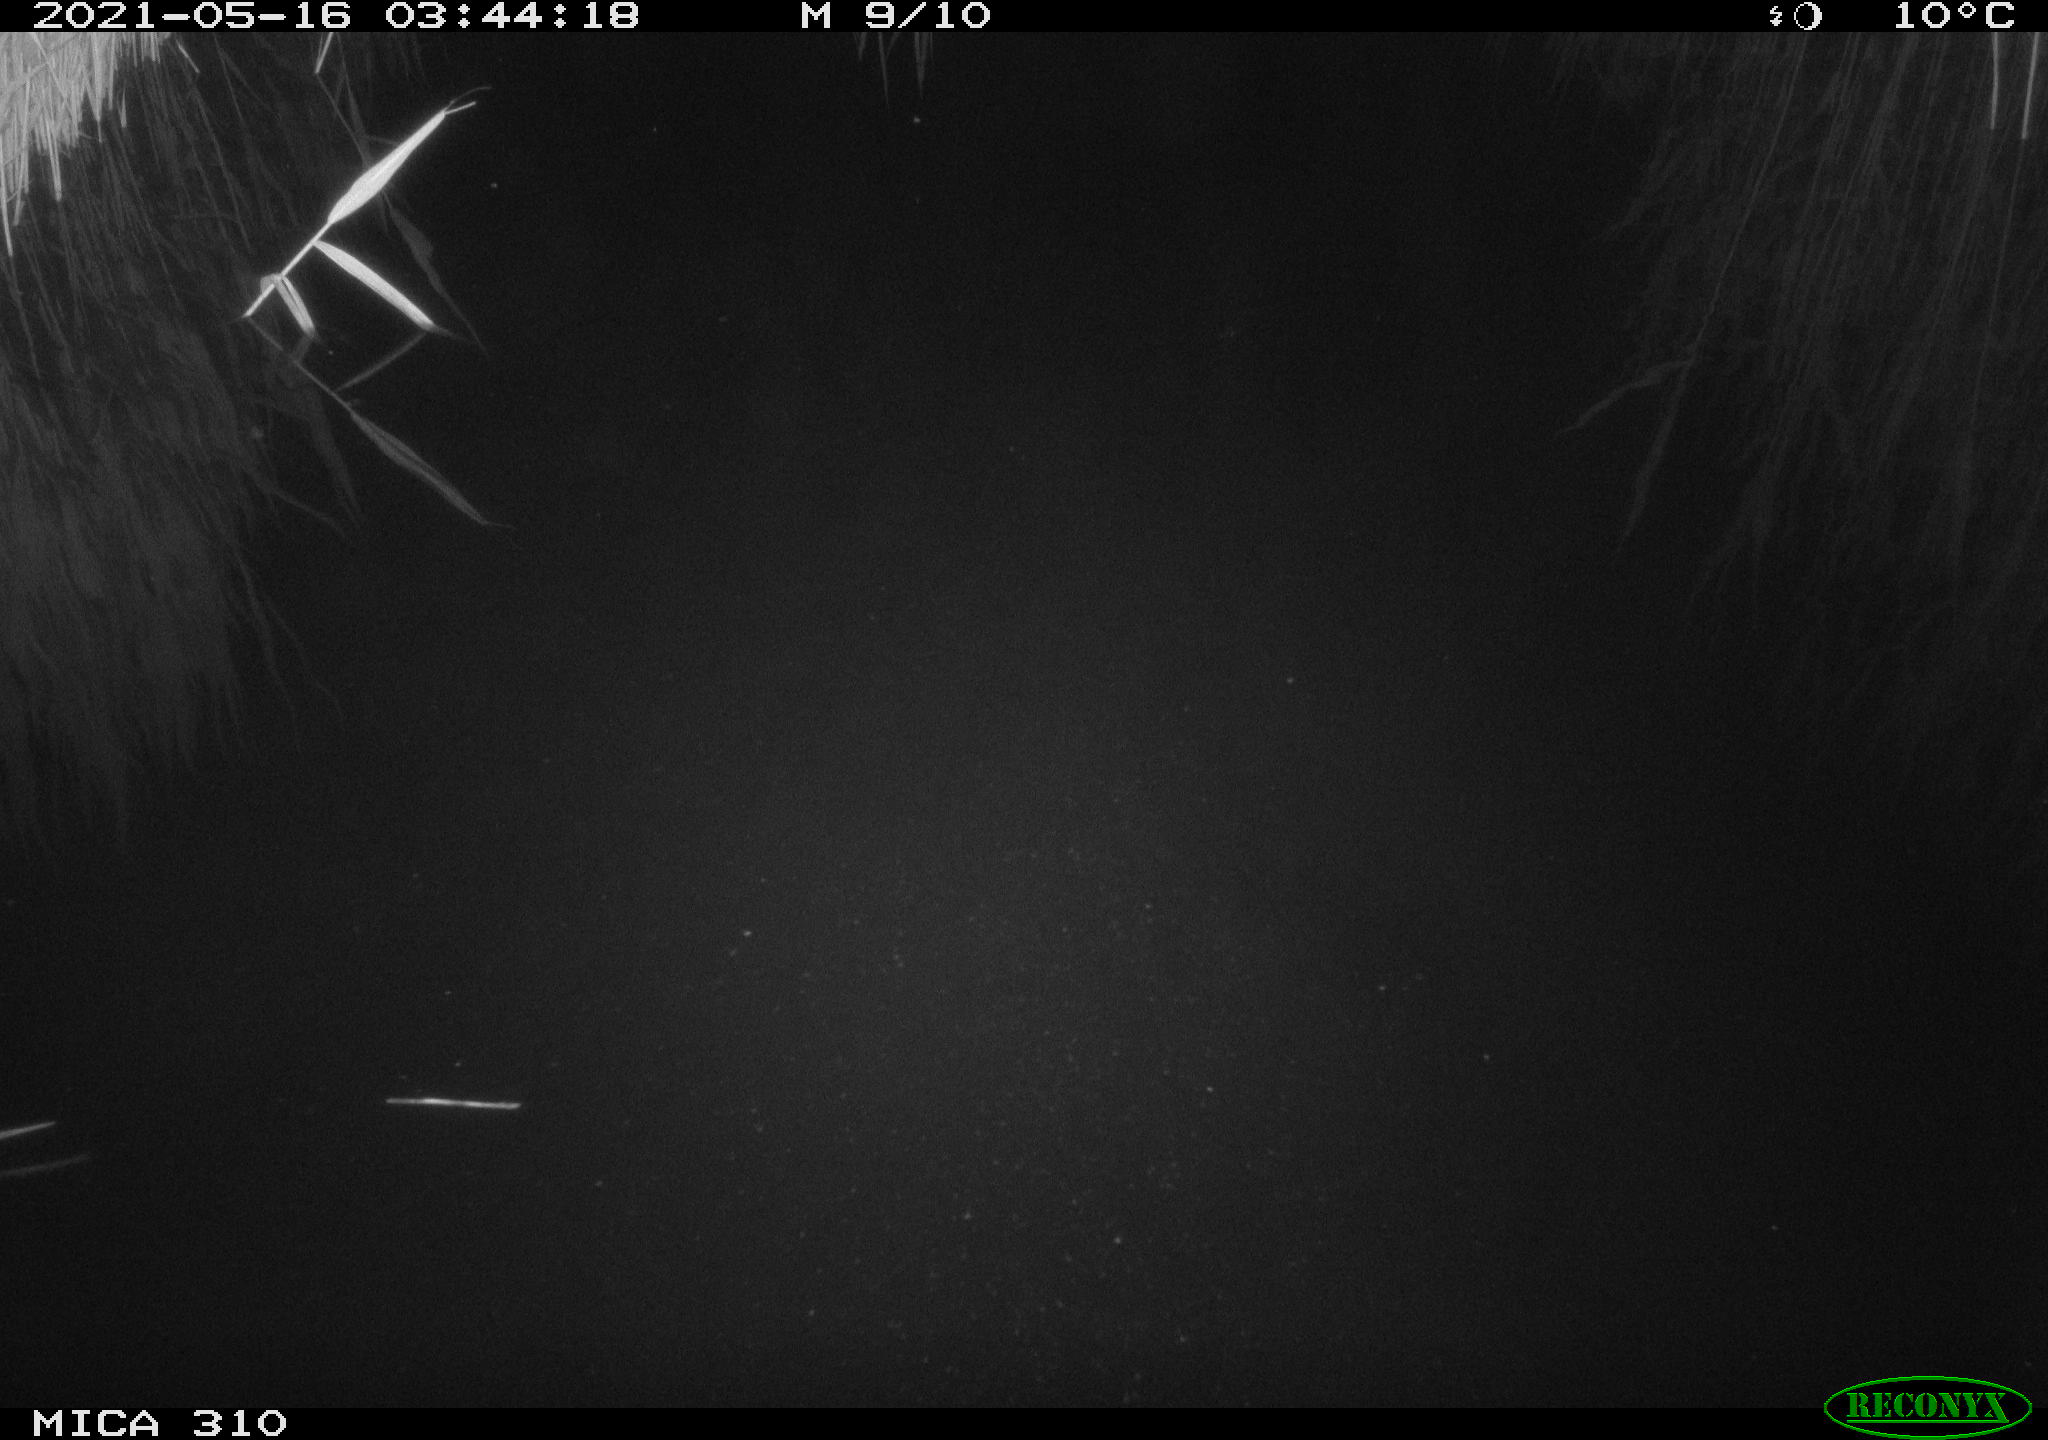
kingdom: Animalia
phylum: Chordata
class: Aves
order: Anseriformes
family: Anatidae
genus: Anas
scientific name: Anas platyrhynchos
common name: Mallard
